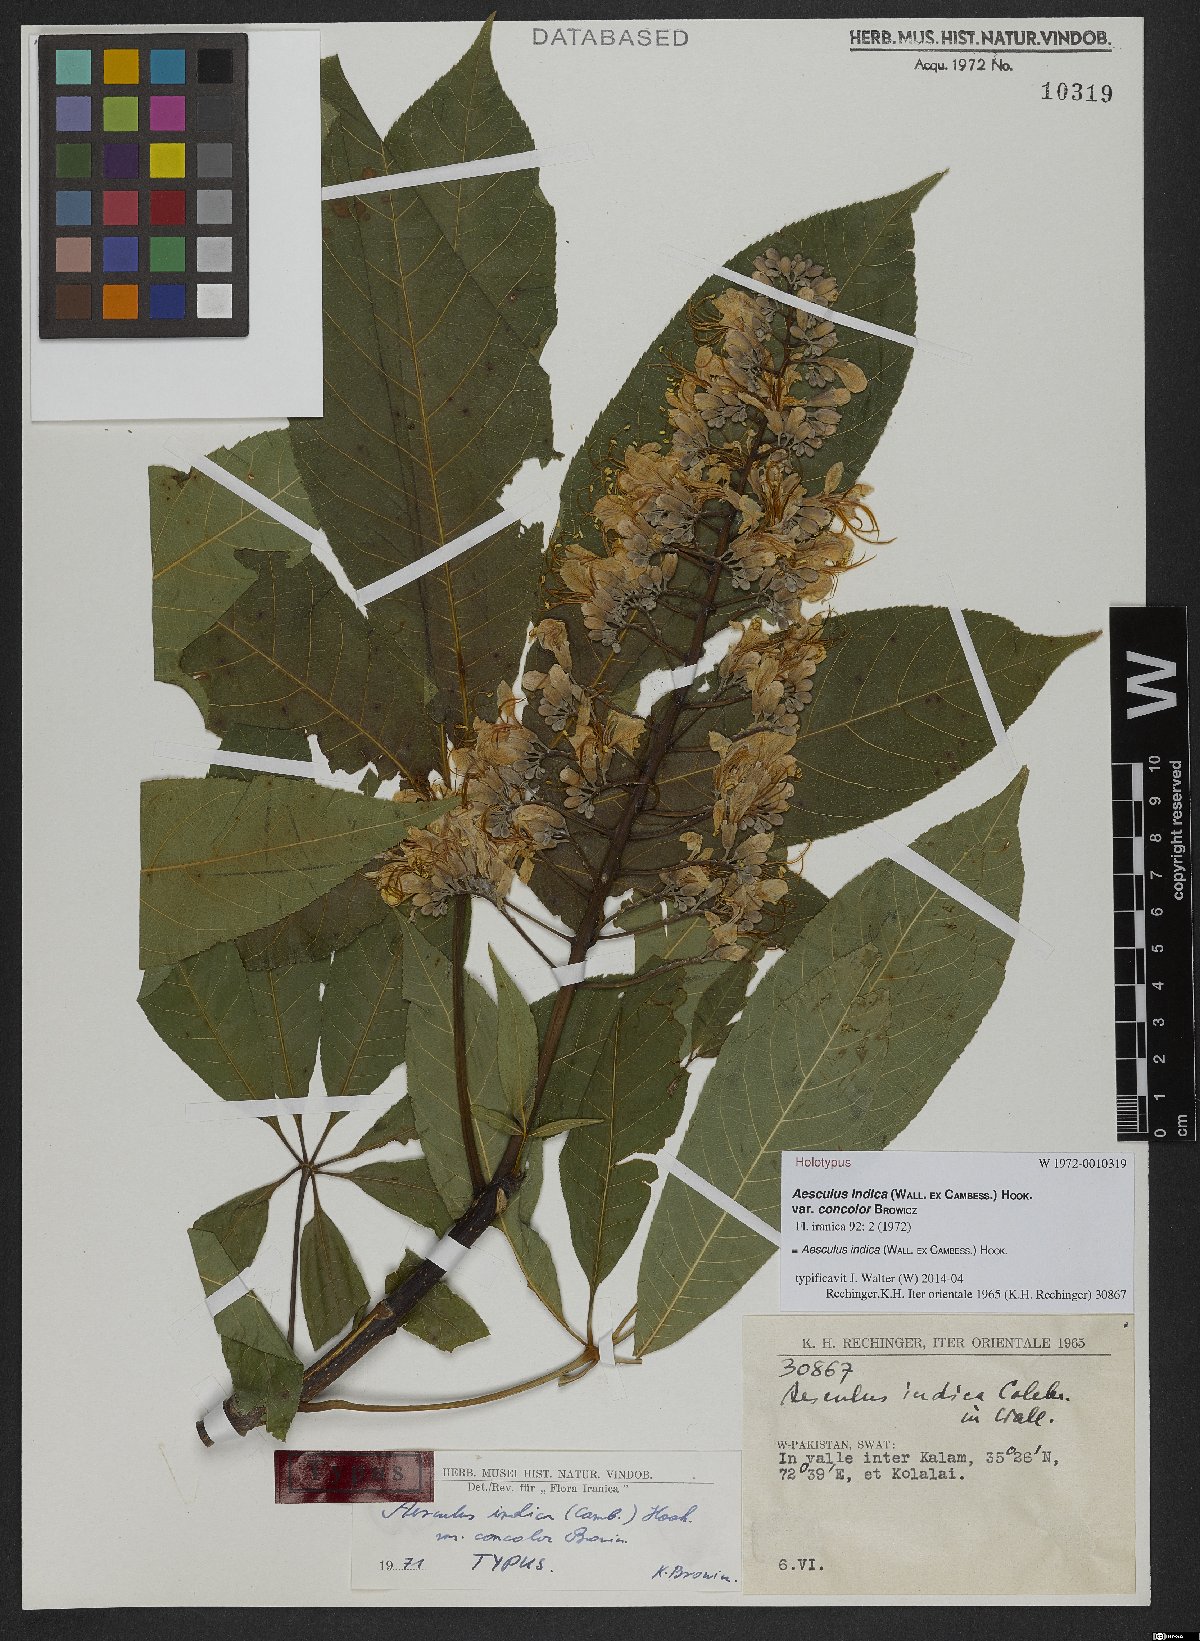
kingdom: Plantae
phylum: Tracheophyta
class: Magnoliopsida
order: Sapindales
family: Sapindaceae
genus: Aesculus
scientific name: Aesculus indica
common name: Indian horse-chestnut
